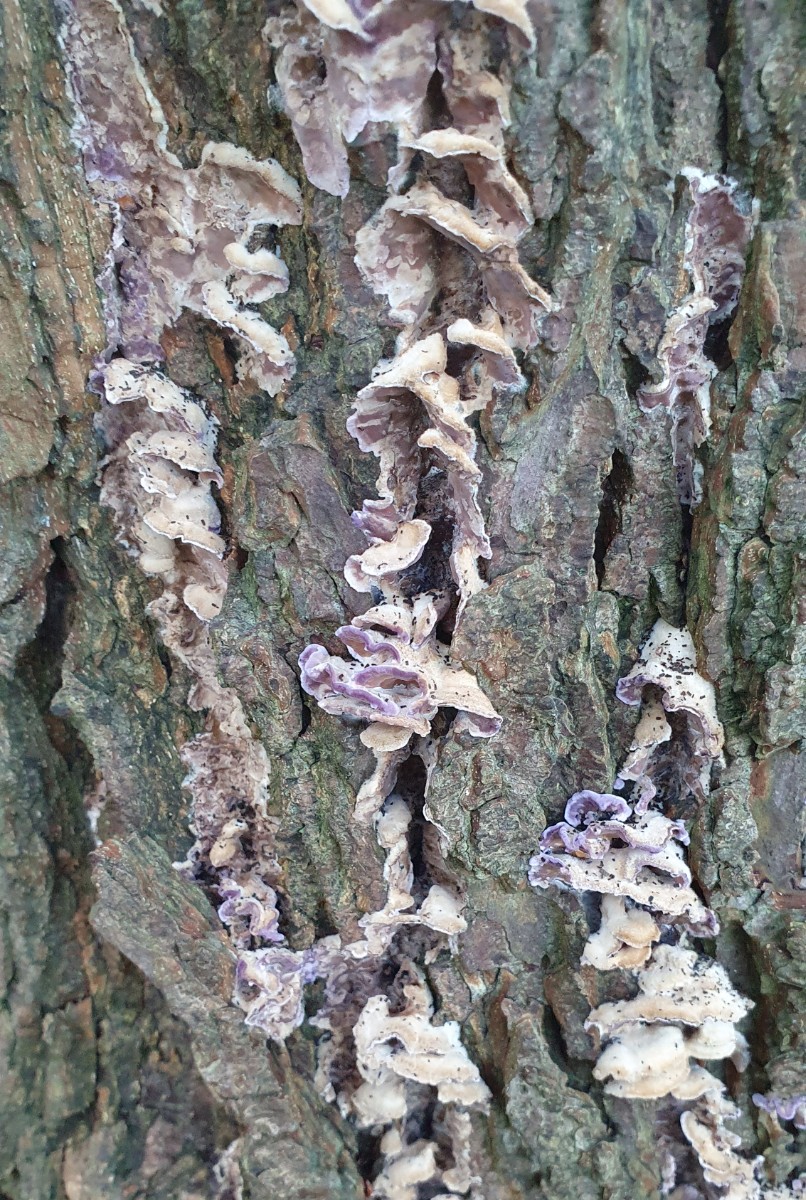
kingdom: Fungi
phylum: Basidiomycota
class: Agaricomycetes
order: Agaricales
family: Cyphellaceae
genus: Chondrostereum
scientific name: Chondrostereum purpureum
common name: purpurlædersvamp
